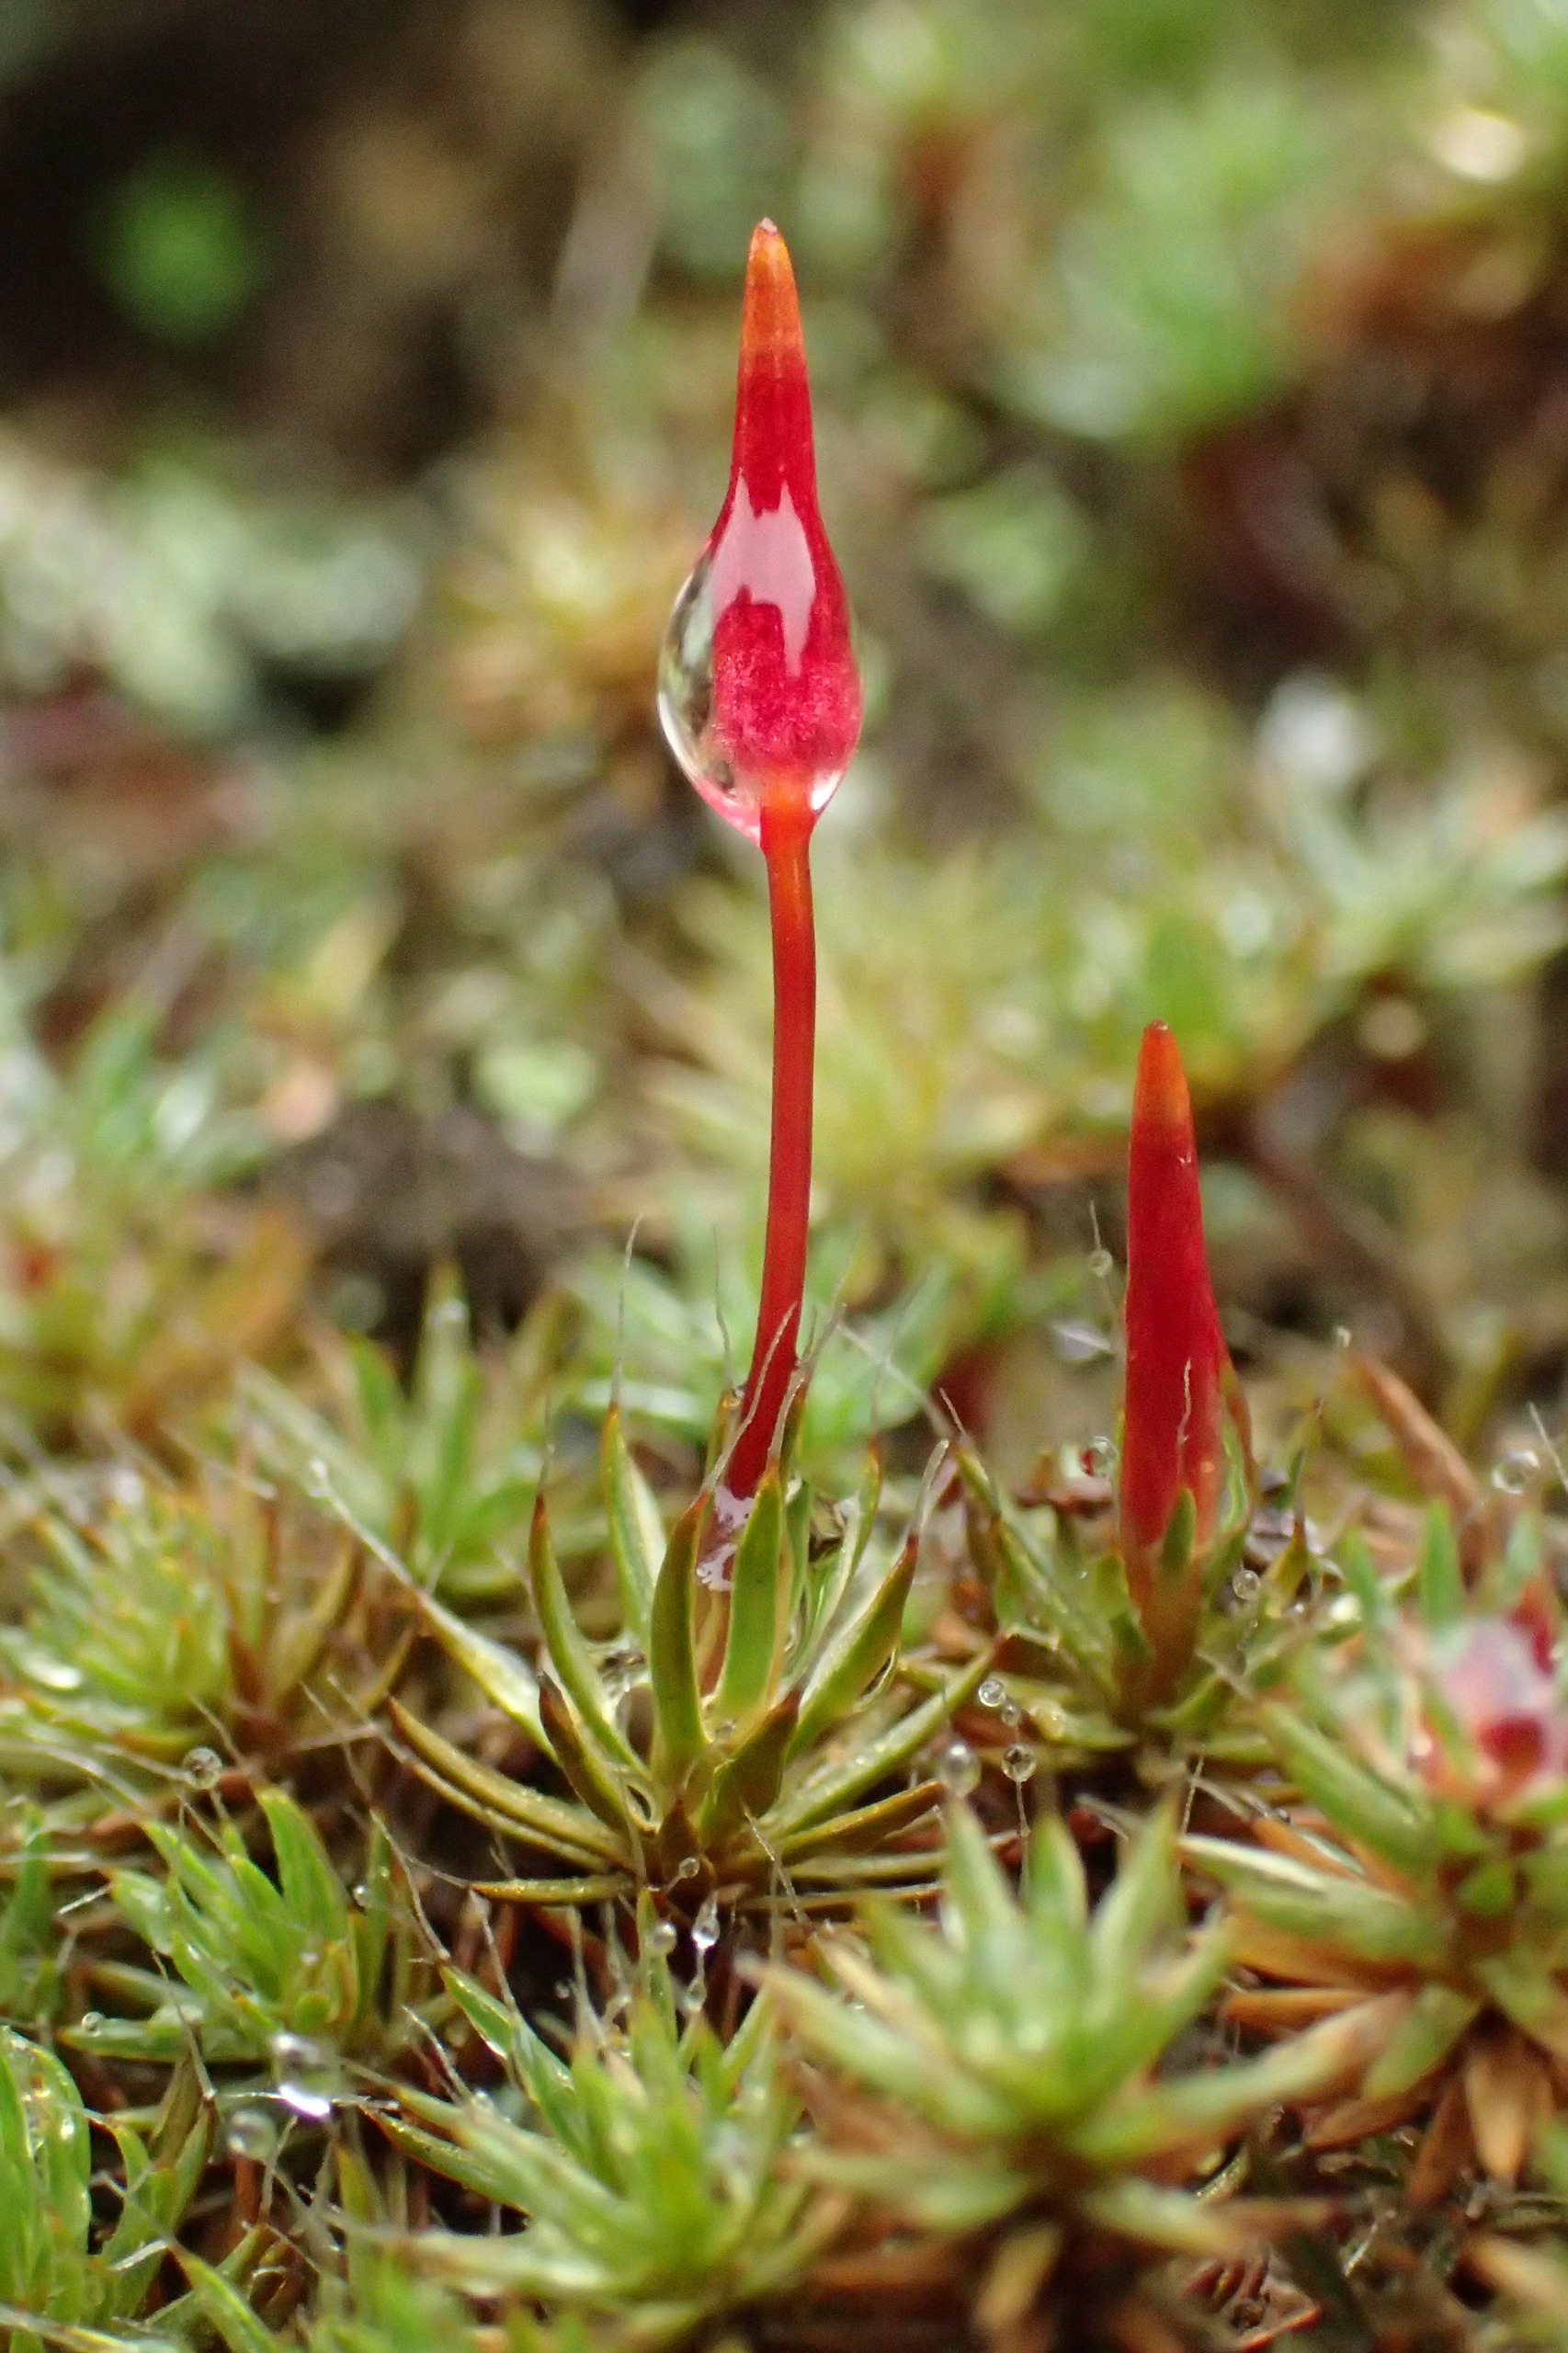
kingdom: Plantae
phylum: Bryophyta
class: Polytrichopsida
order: Polytrichales
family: Polytrichaceae
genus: Polytrichum
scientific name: Polytrichum piliferum
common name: Hårspidset jomfruhår
